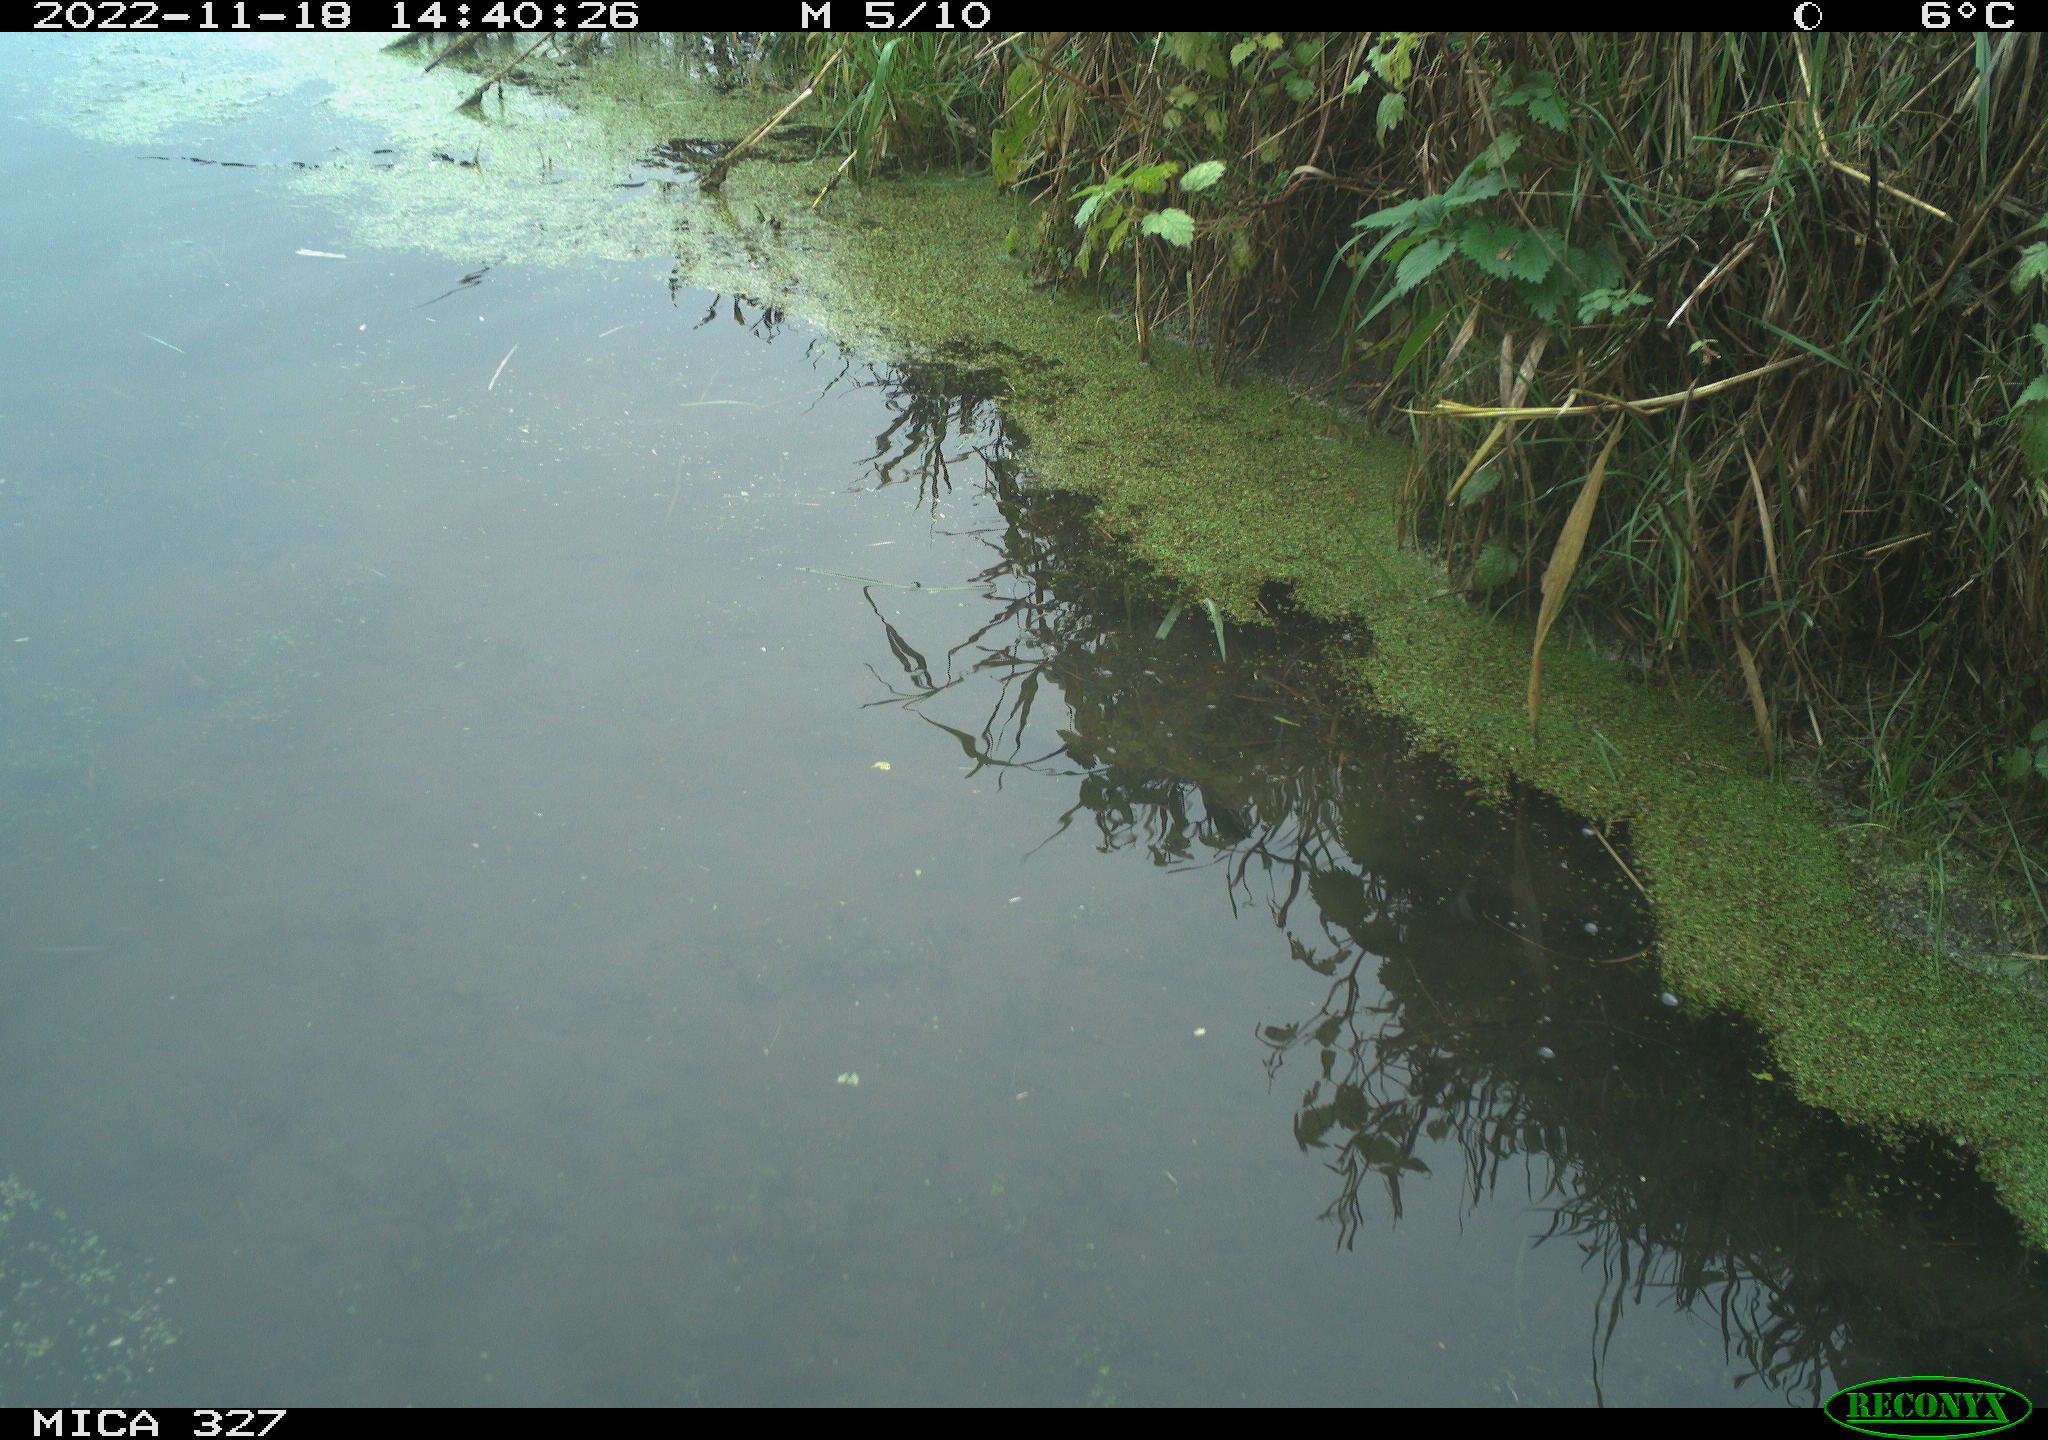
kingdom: Animalia
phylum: Chordata
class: Aves
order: Gruiformes
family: Rallidae
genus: Gallinula
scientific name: Gallinula chloropus
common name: Common moorhen
